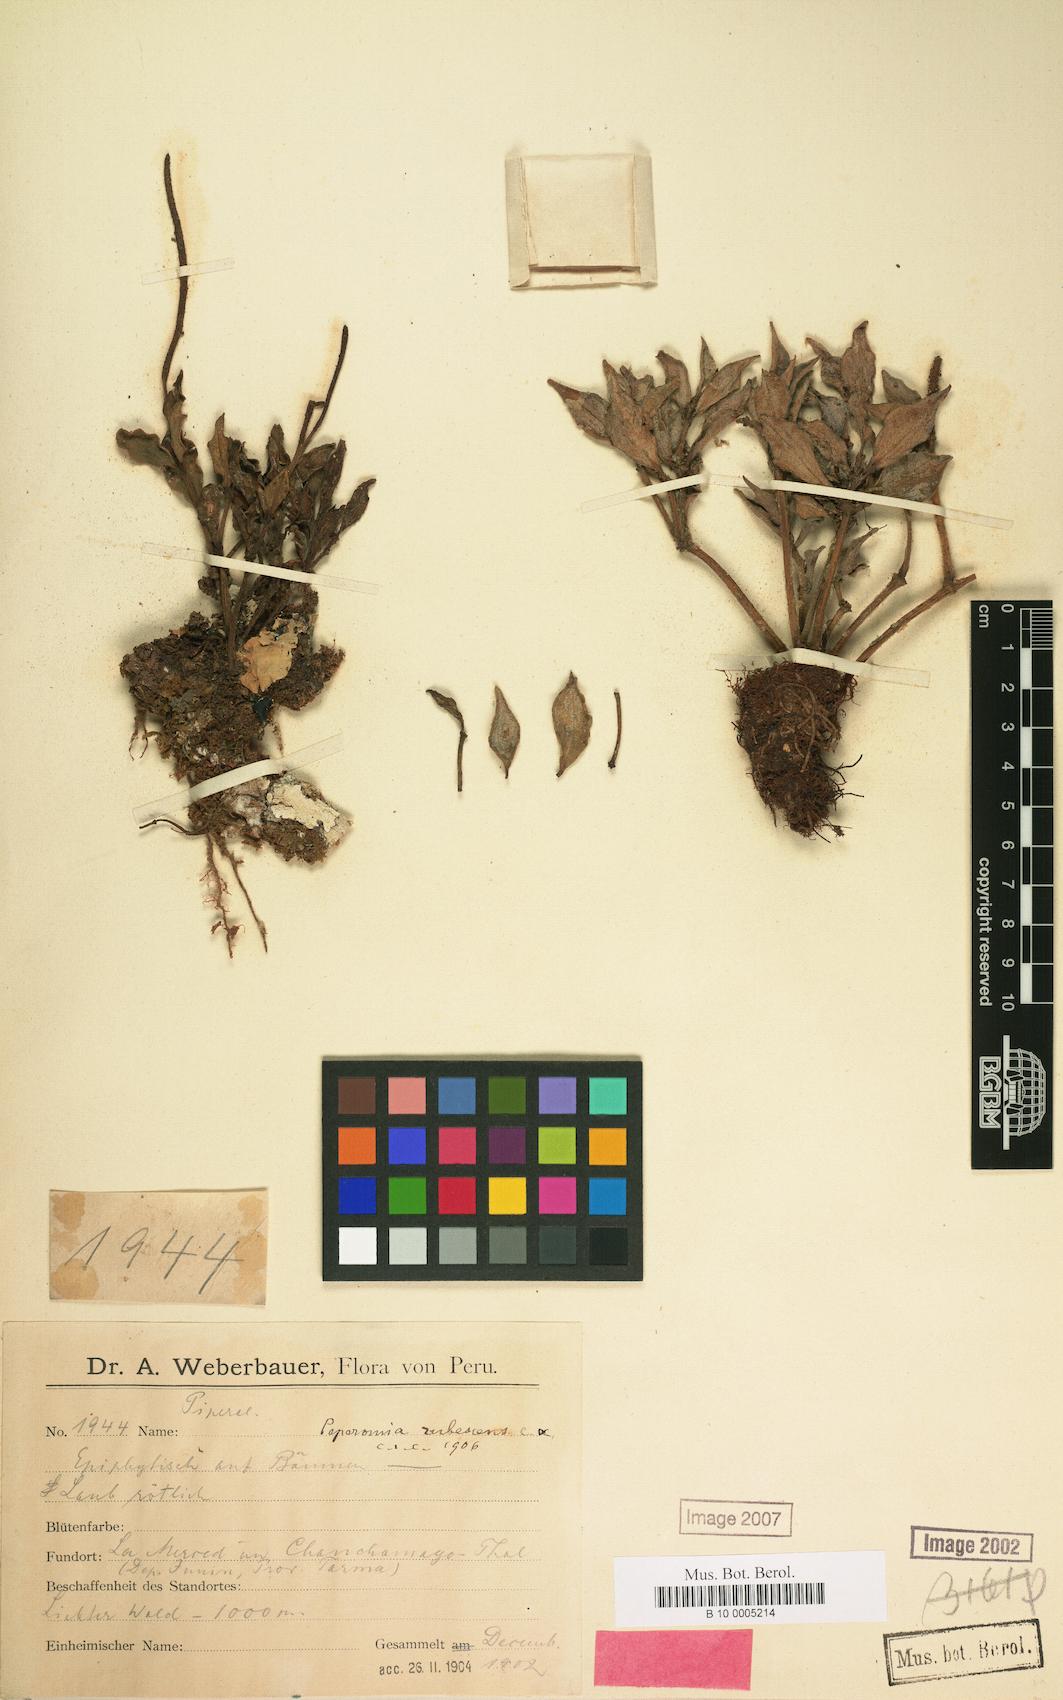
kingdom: Plantae
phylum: Tracheophyta
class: Magnoliopsida
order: Piperales
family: Piperaceae
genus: Peperomia
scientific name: Peperomia rubescens
